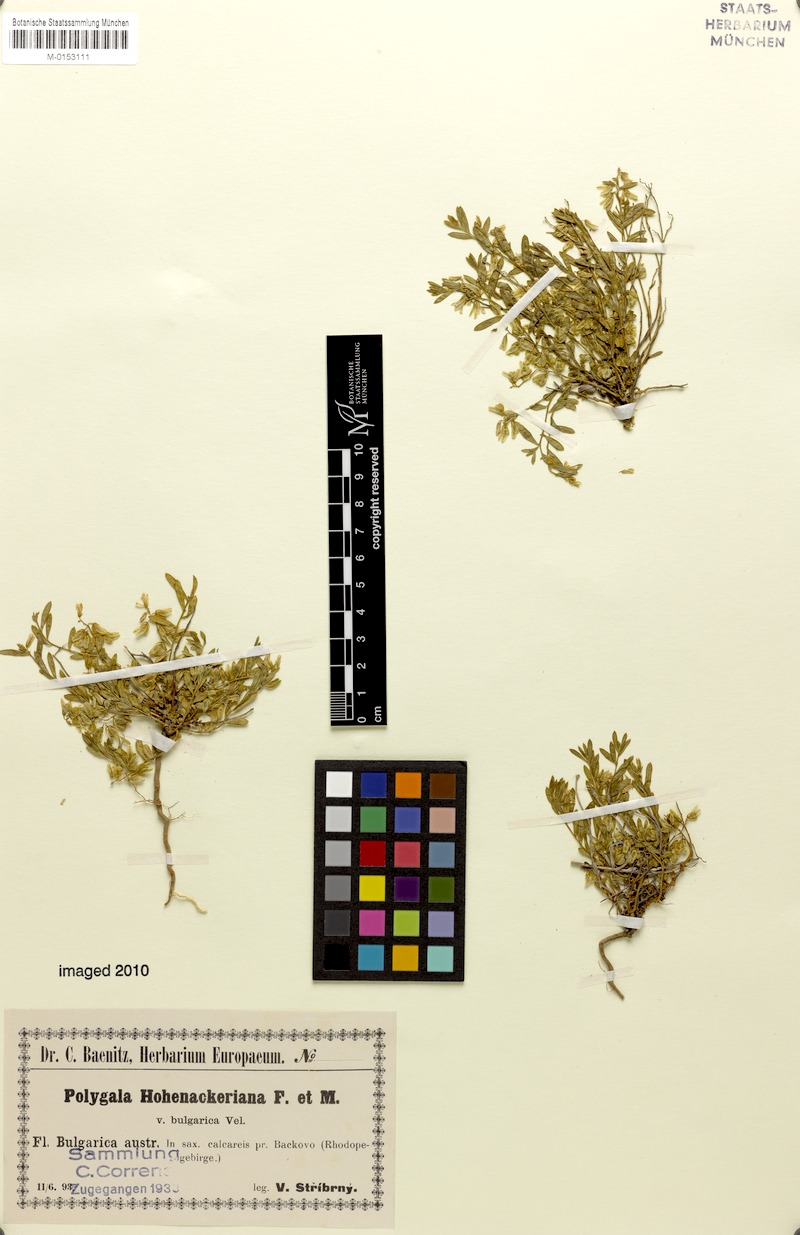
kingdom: Plantae
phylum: Tracheophyta
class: Magnoliopsida
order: Fabales
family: Polygalaceae
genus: Polygala
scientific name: Polygala hohenackeriana
